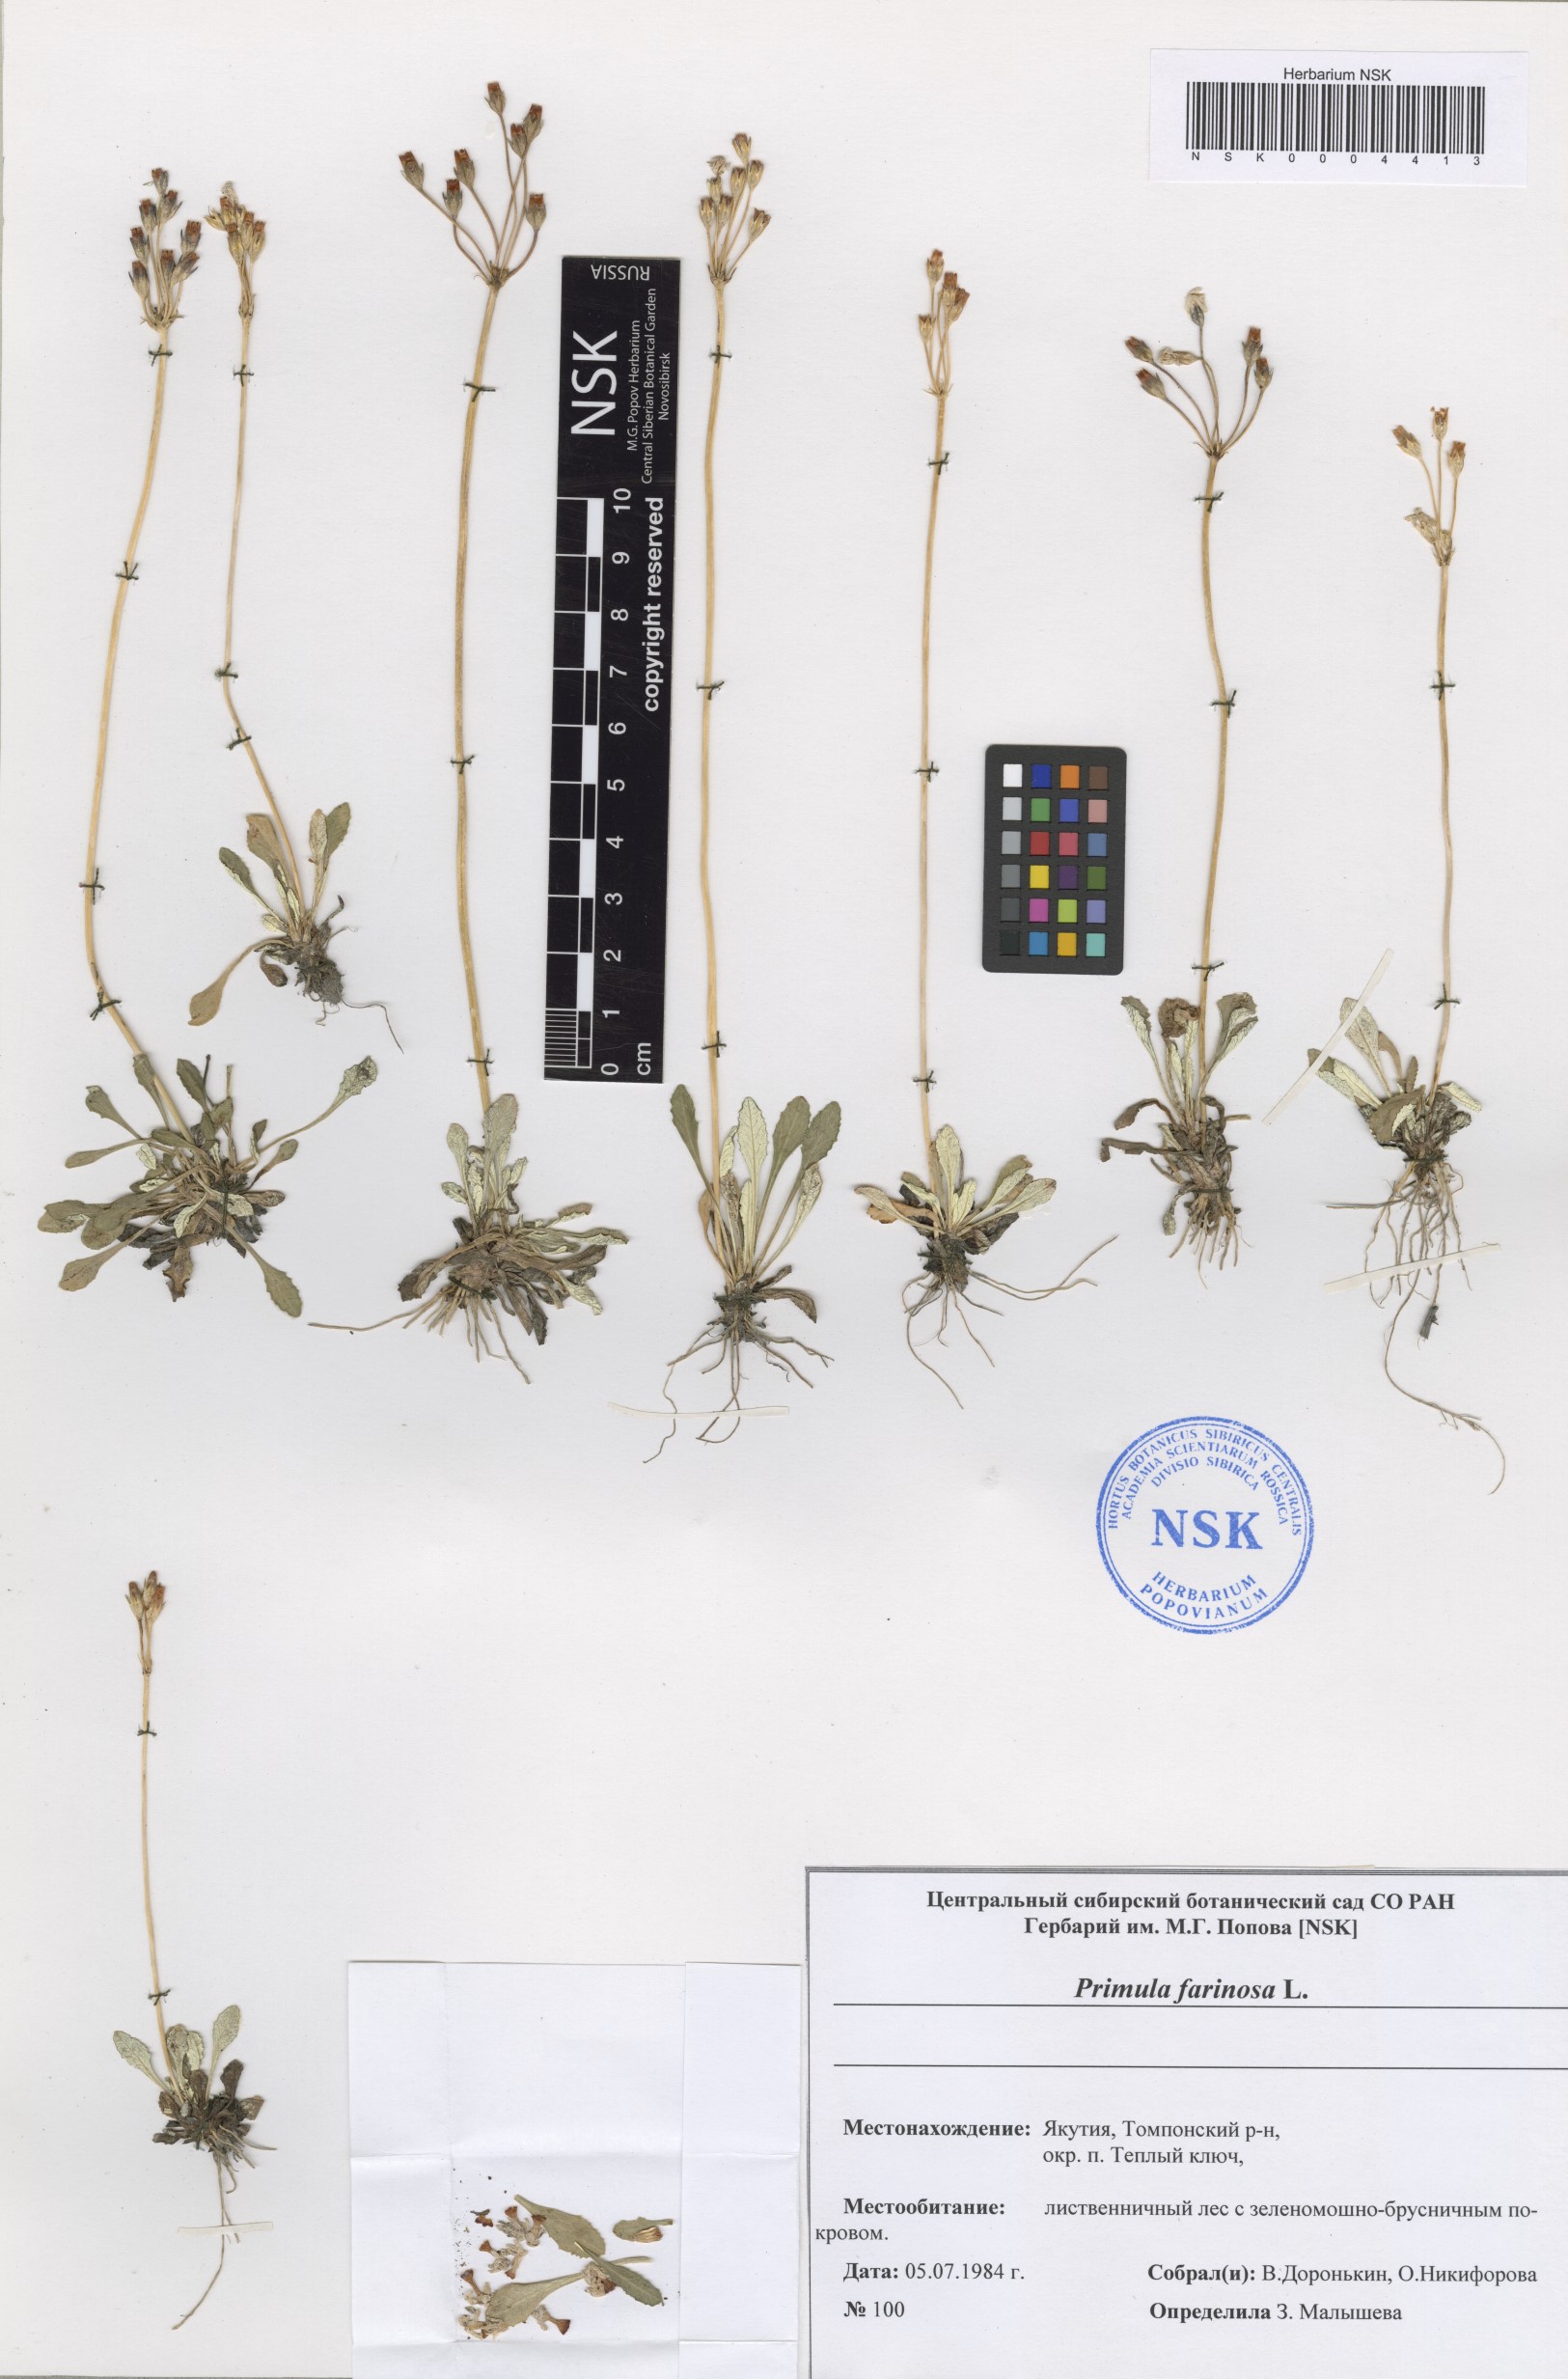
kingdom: Plantae
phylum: Tracheophyta
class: Magnoliopsida
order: Ericales
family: Primulaceae
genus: Primula
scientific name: Primula farinosa
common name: Bird's-eye primrose
